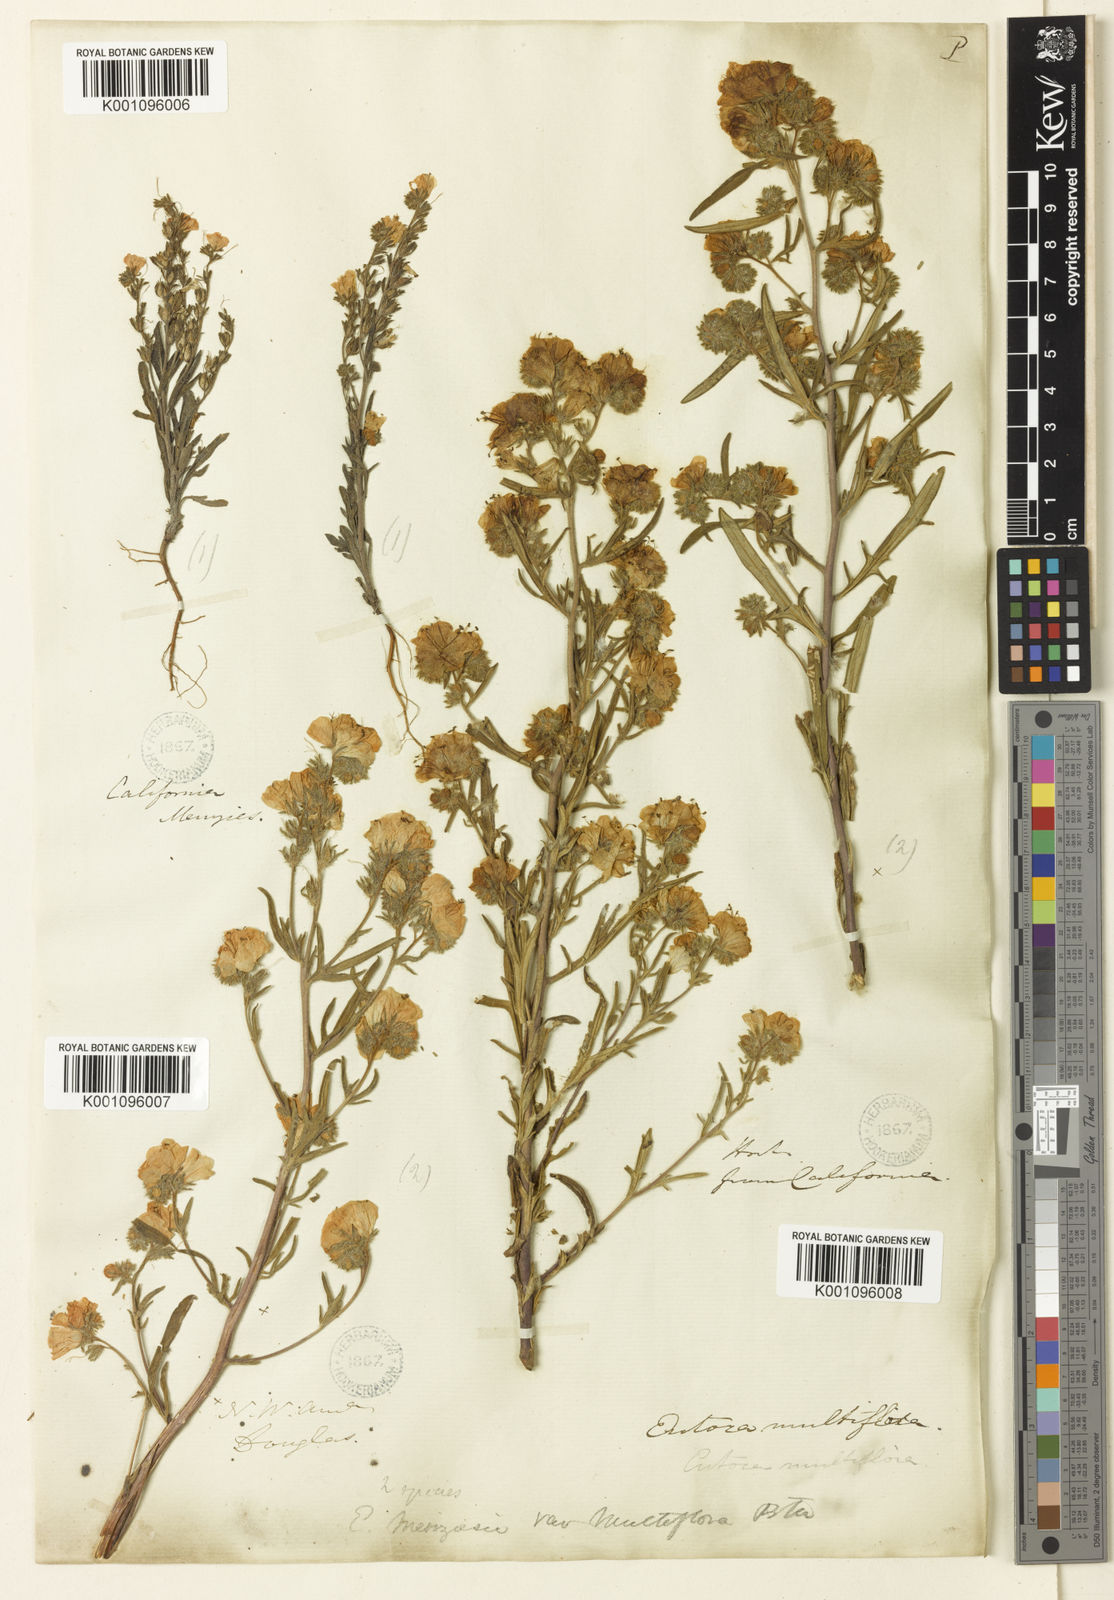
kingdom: Plantae
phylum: Tracheophyta
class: Magnoliopsida
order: Boraginales
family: Hydrophyllaceae
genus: Phacelia
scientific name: Phacelia linearis
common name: Linear-leaved phacelia
